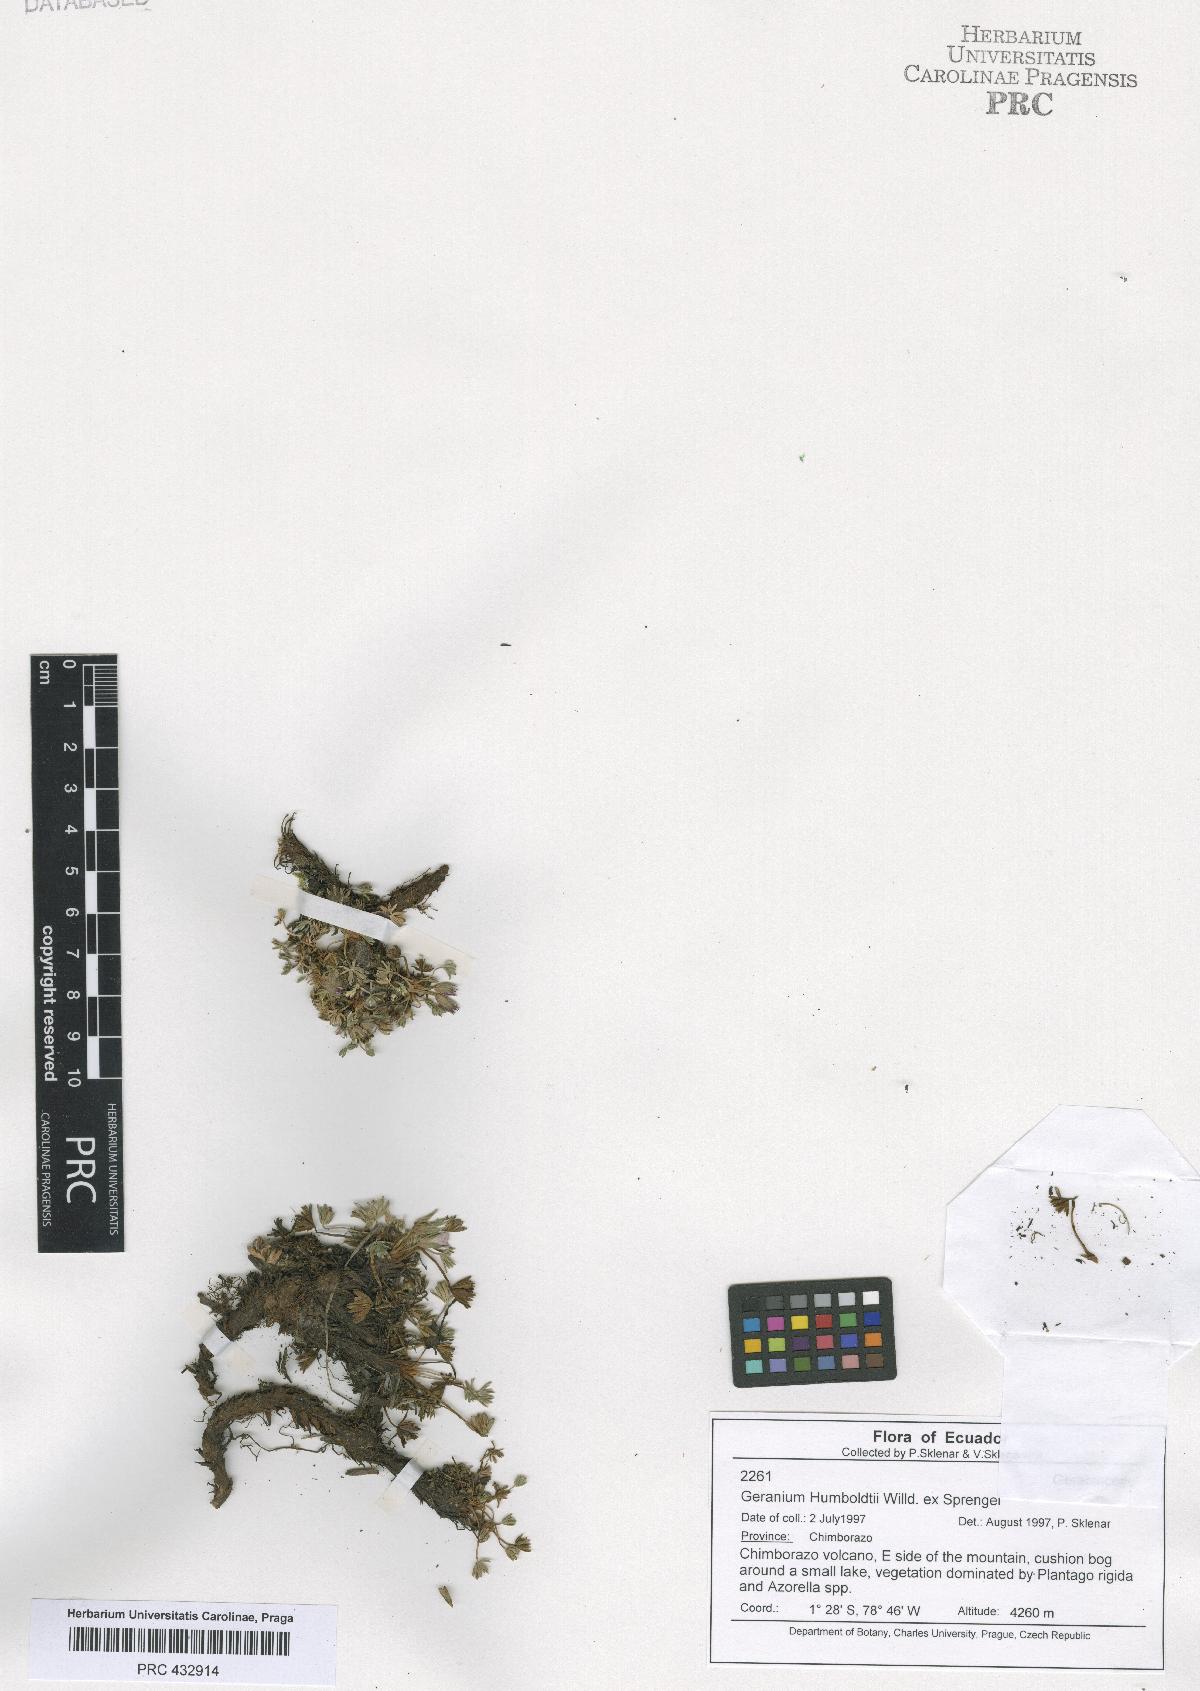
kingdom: Plantae
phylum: Tracheophyta
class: Magnoliopsida
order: Geraniales
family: Geraniaceae
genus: Geranium
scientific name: Geranium humboldtii
